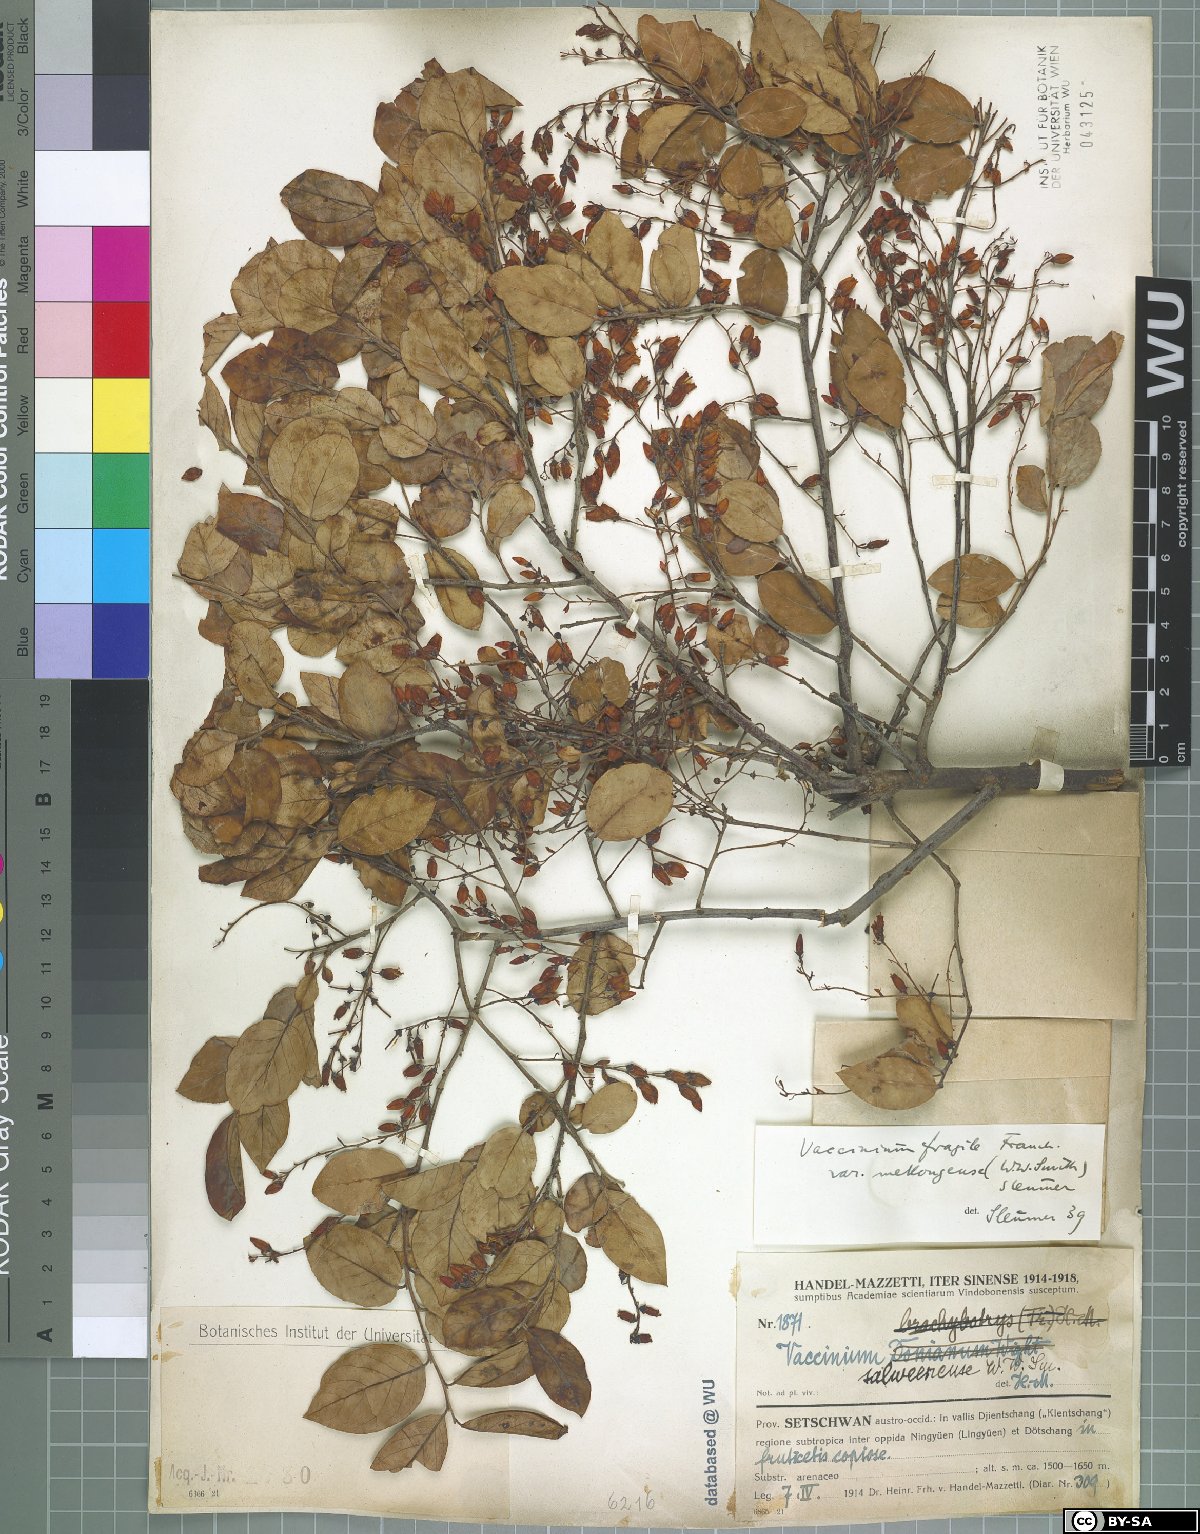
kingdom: Plantae
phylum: Tracheophyta
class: Magnoliopsida
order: Ericales
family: Ericaceae
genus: Vaccinium
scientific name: Vaccinium fragile
